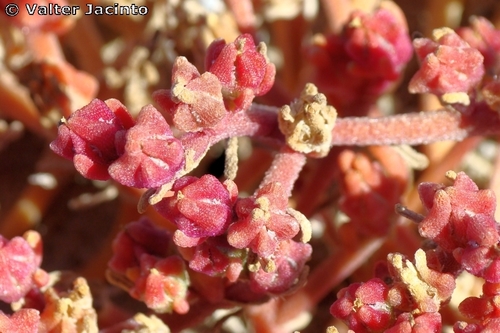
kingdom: Plantae
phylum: Tracheophyta
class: Magnoliopsida
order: Caryophyllales
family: Aizoaceae
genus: Mesembryanthemum
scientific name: Mesembryanthemum nodiflorum
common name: Slenderleaf iceplant
